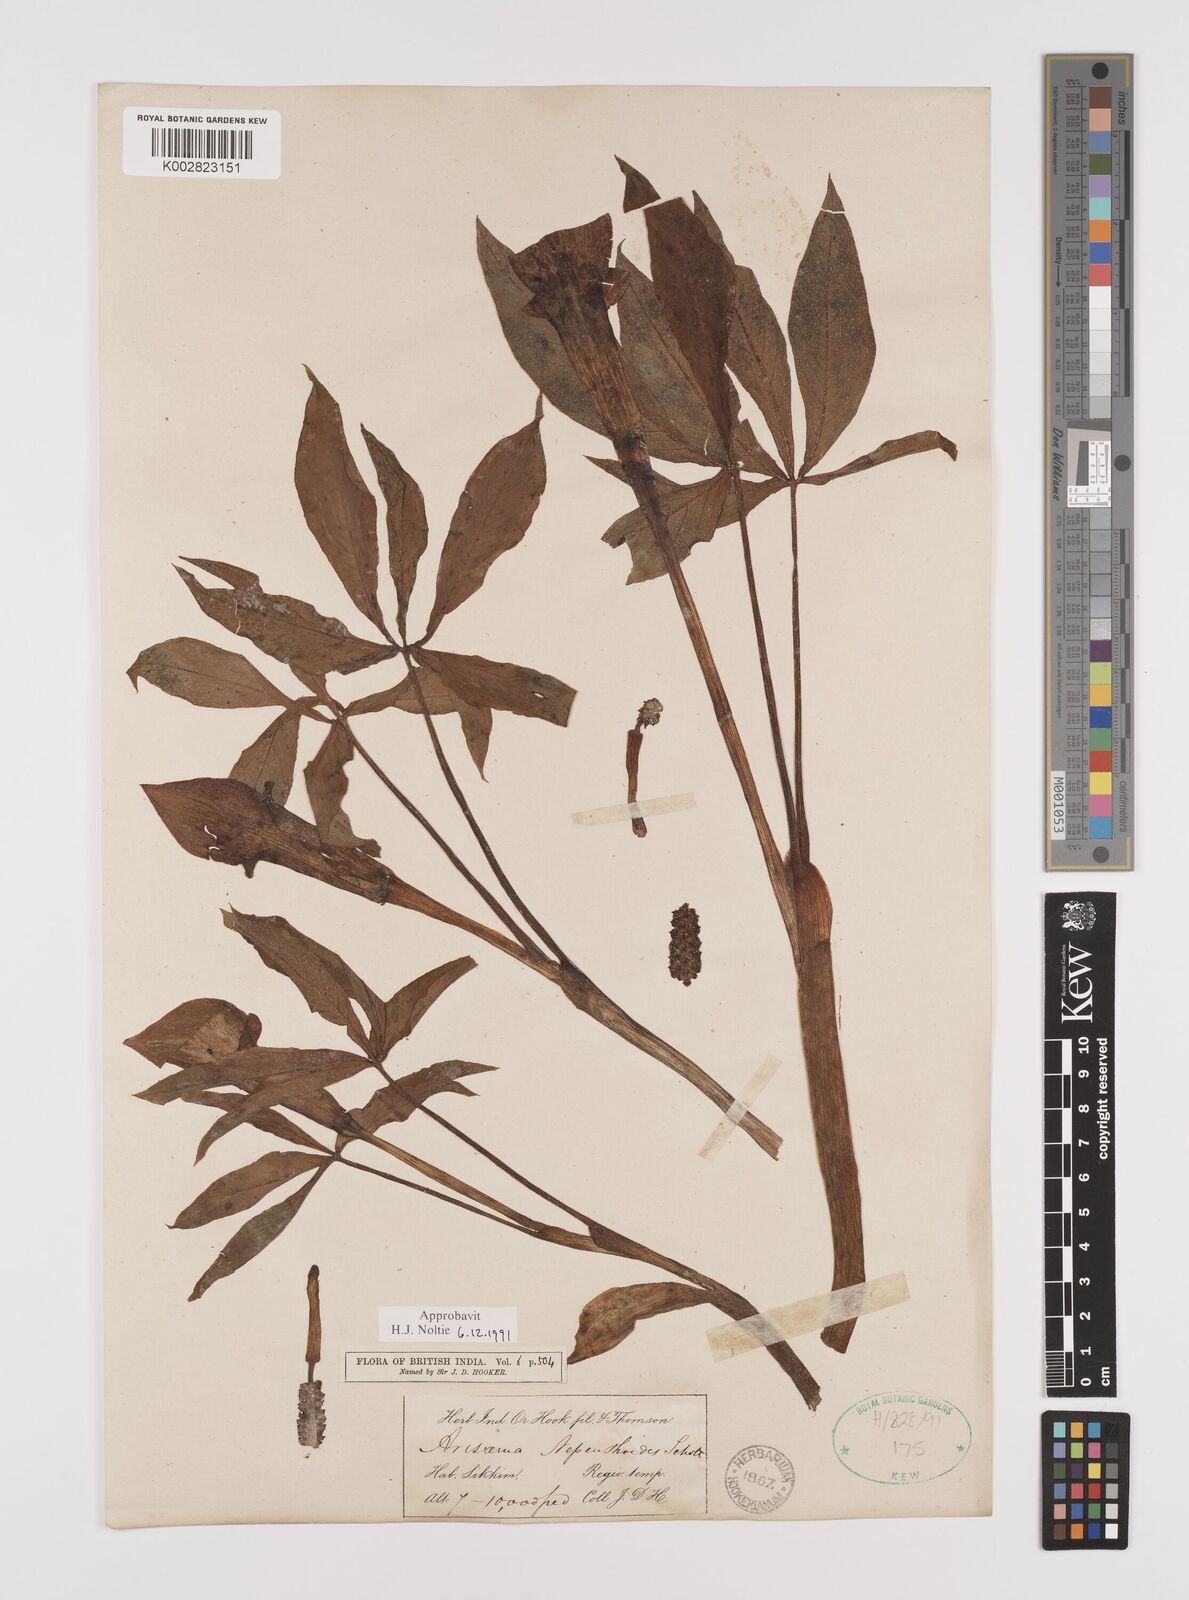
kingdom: Plantae
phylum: Tracheophyta
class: Liliopsida
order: Alismatales
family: Araceae
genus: Arisaema
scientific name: Arisaema nepenthoides
